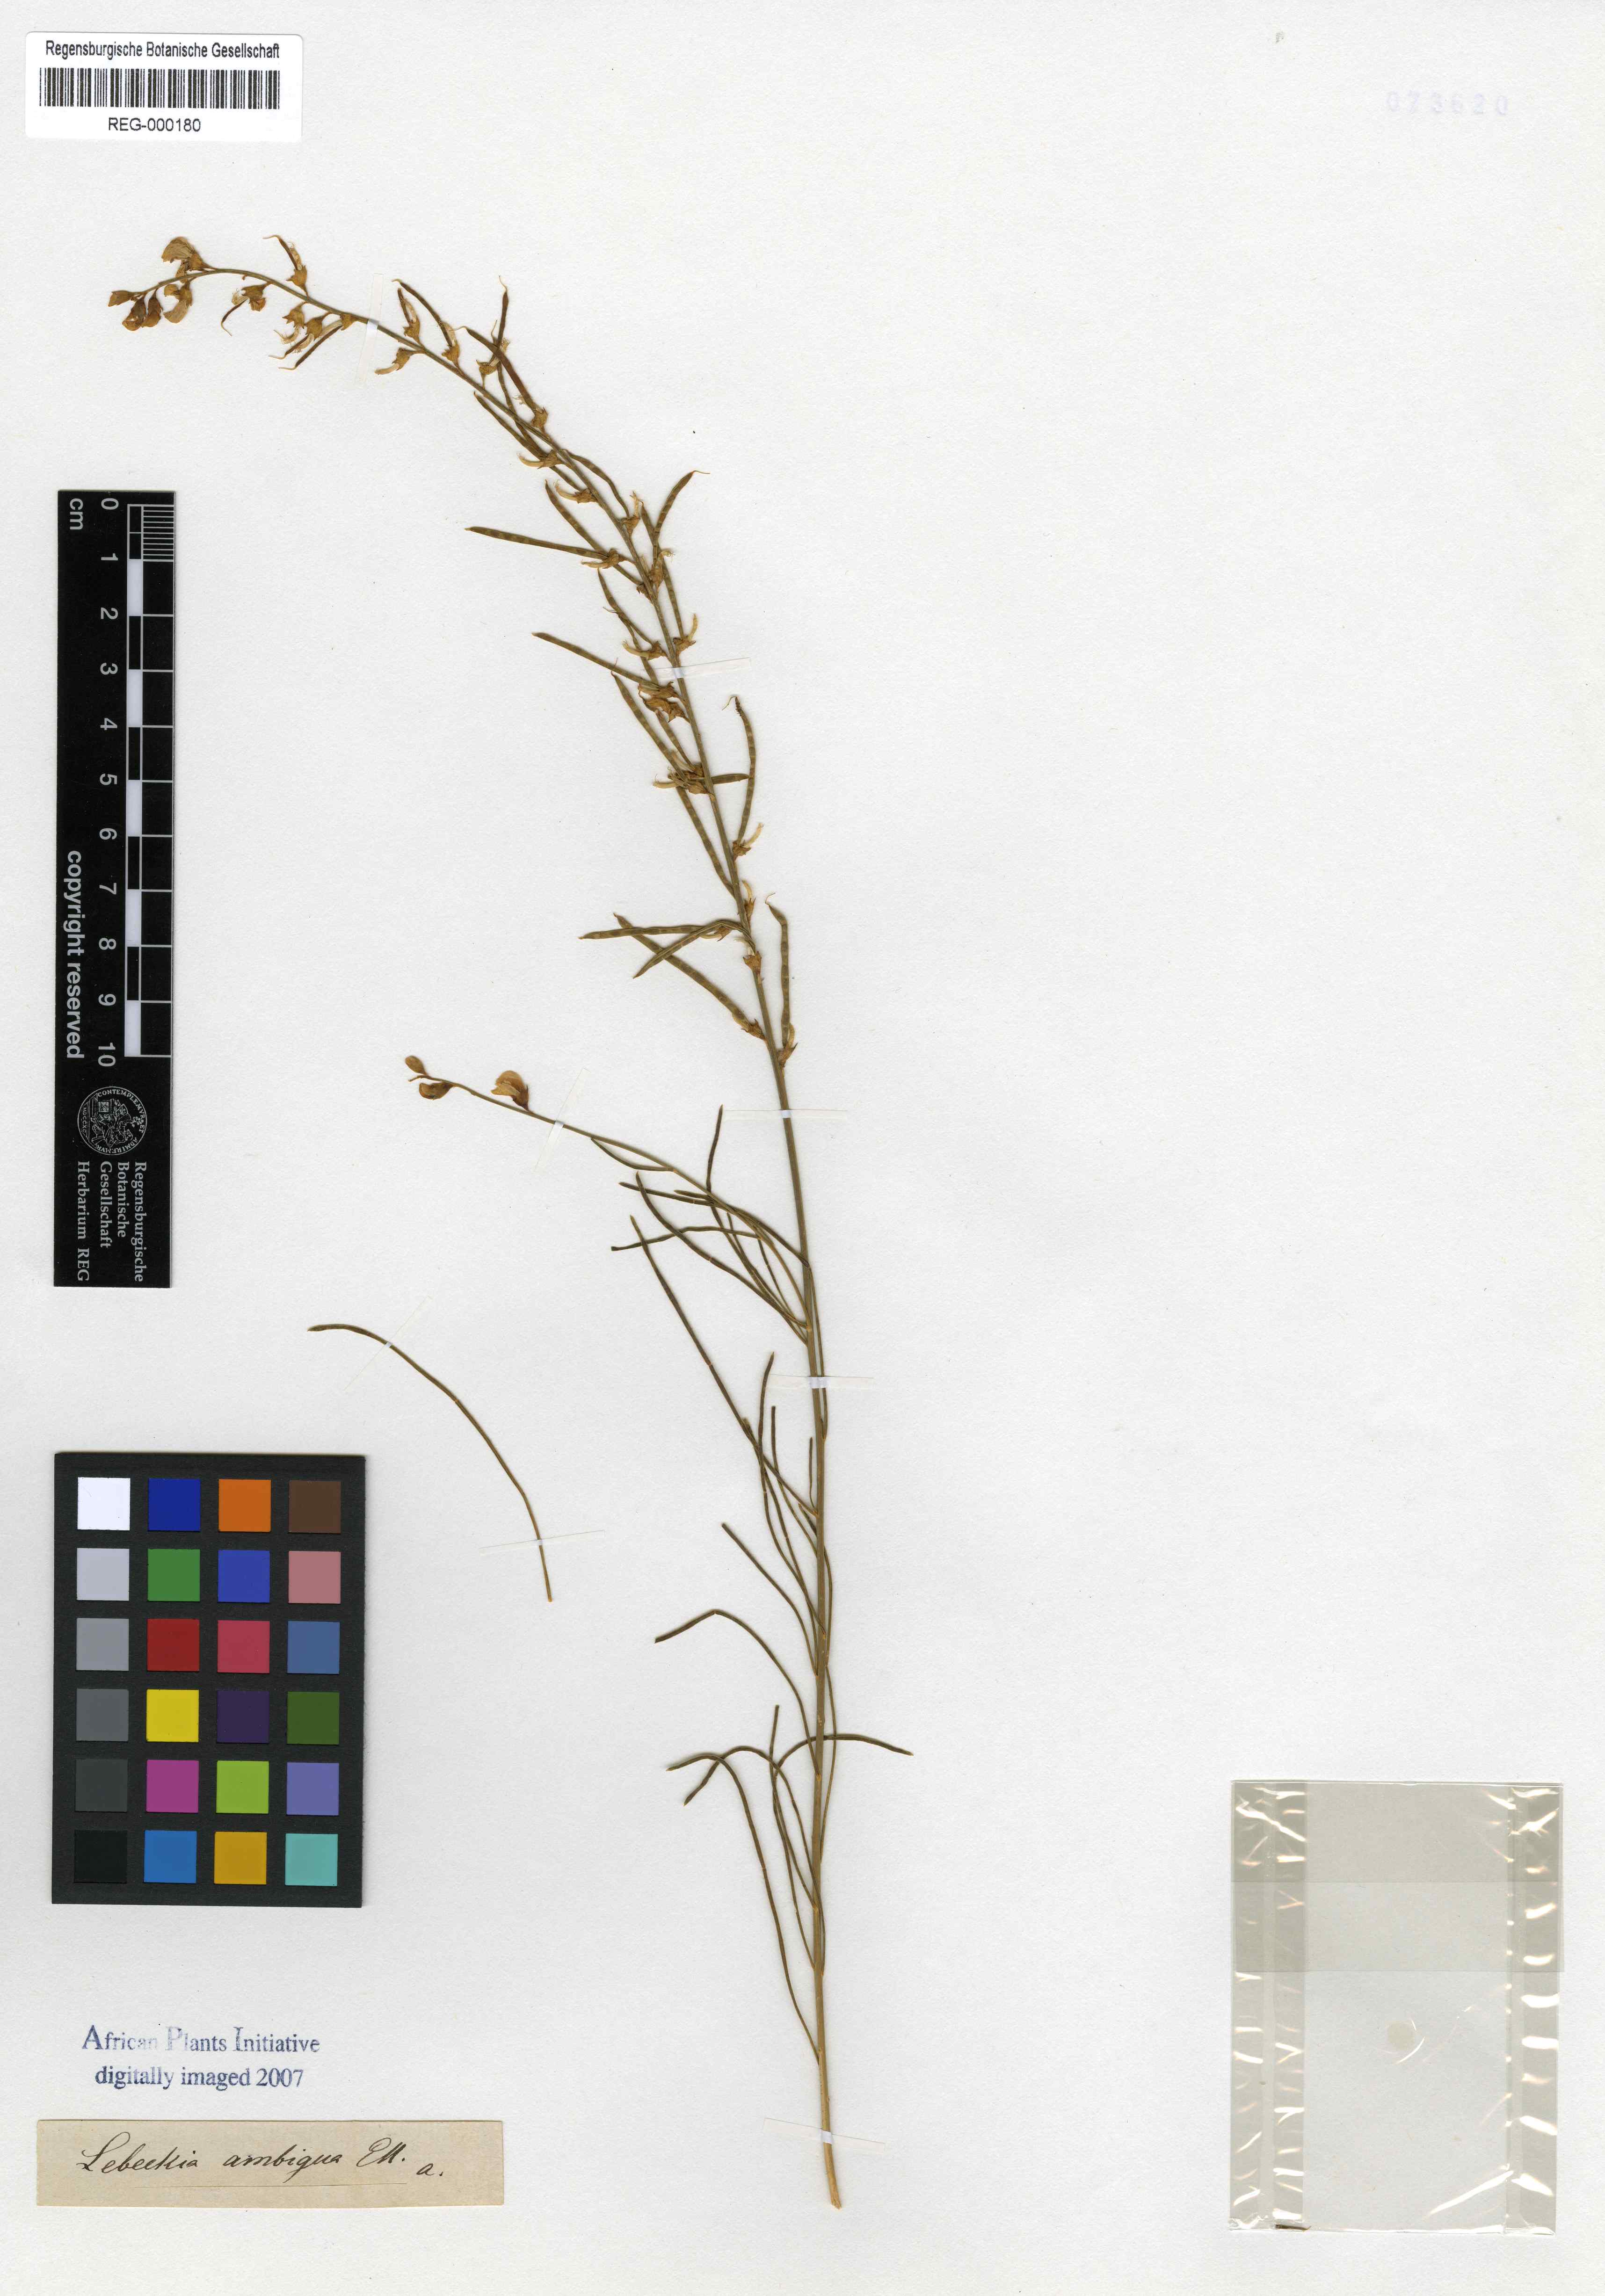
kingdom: Plantae
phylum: Tracheophyta
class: Magnoliopsida
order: Fabales
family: Fabaceae
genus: Lebeckia
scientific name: Lebeckia ambigua
